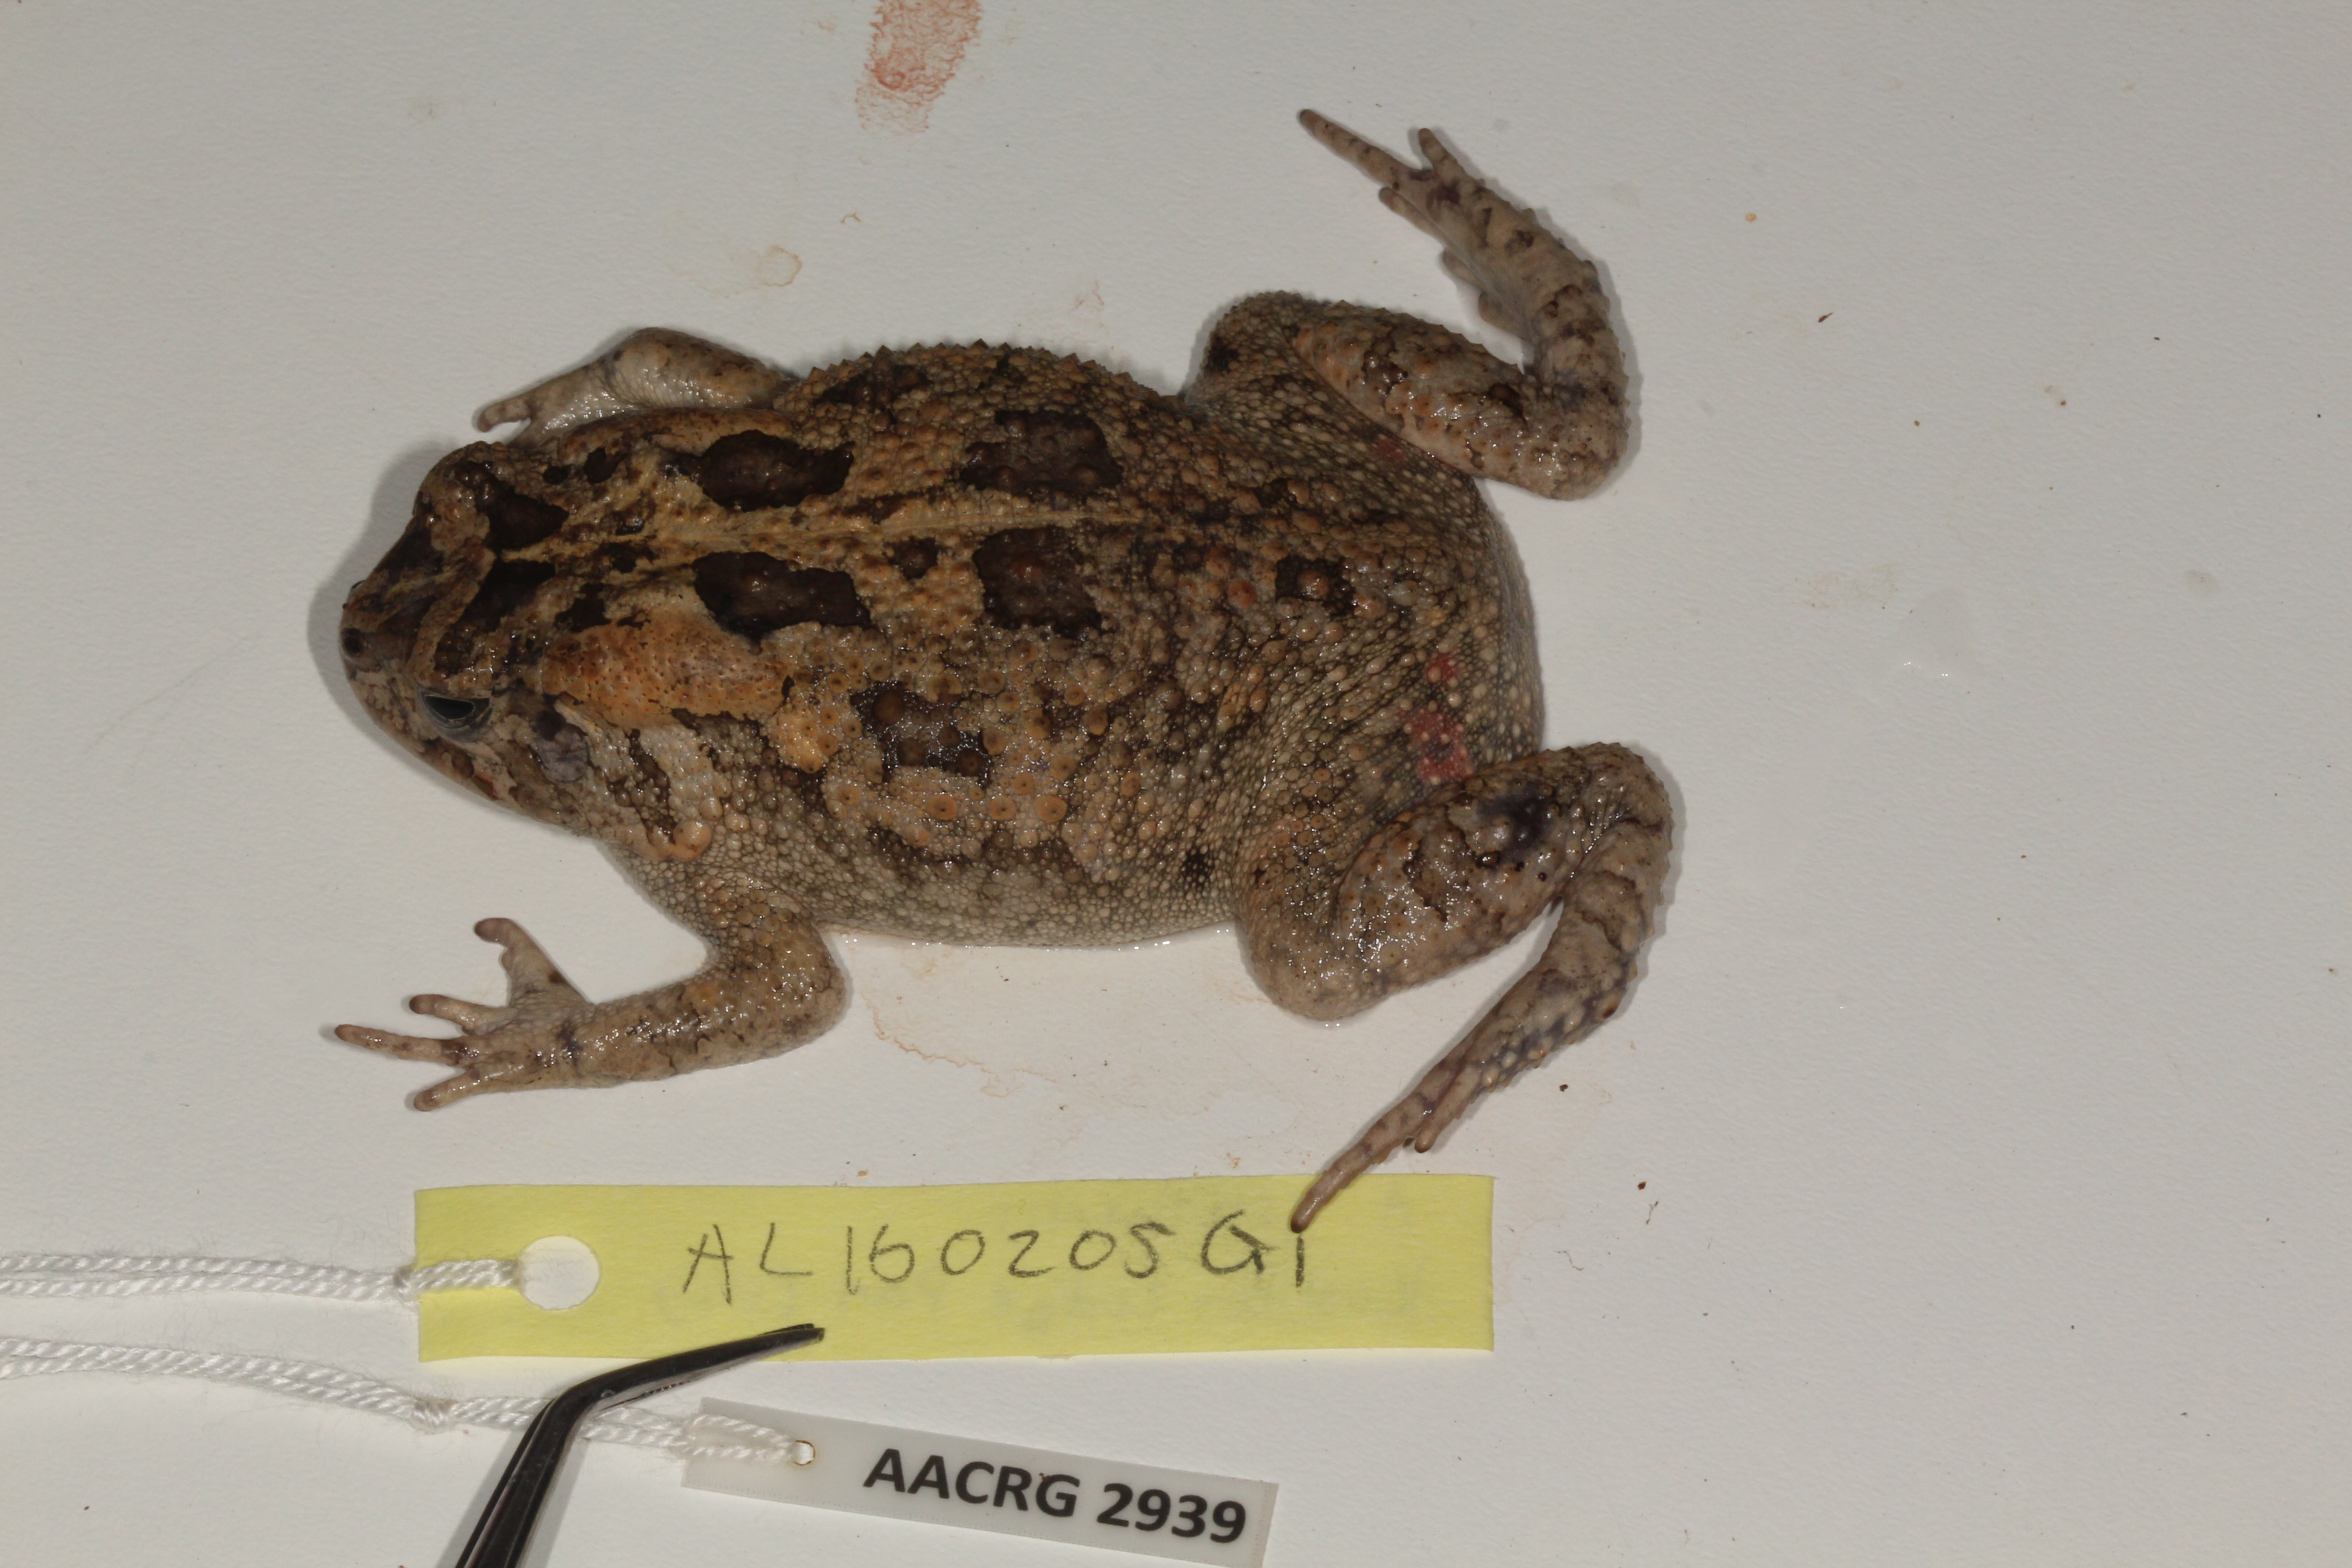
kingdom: Animalia
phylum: Chordata
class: Amphibia
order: Anura
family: Bufonidae
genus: Sclerophrys
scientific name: Sclerophrys gutturalis
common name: African common toad
